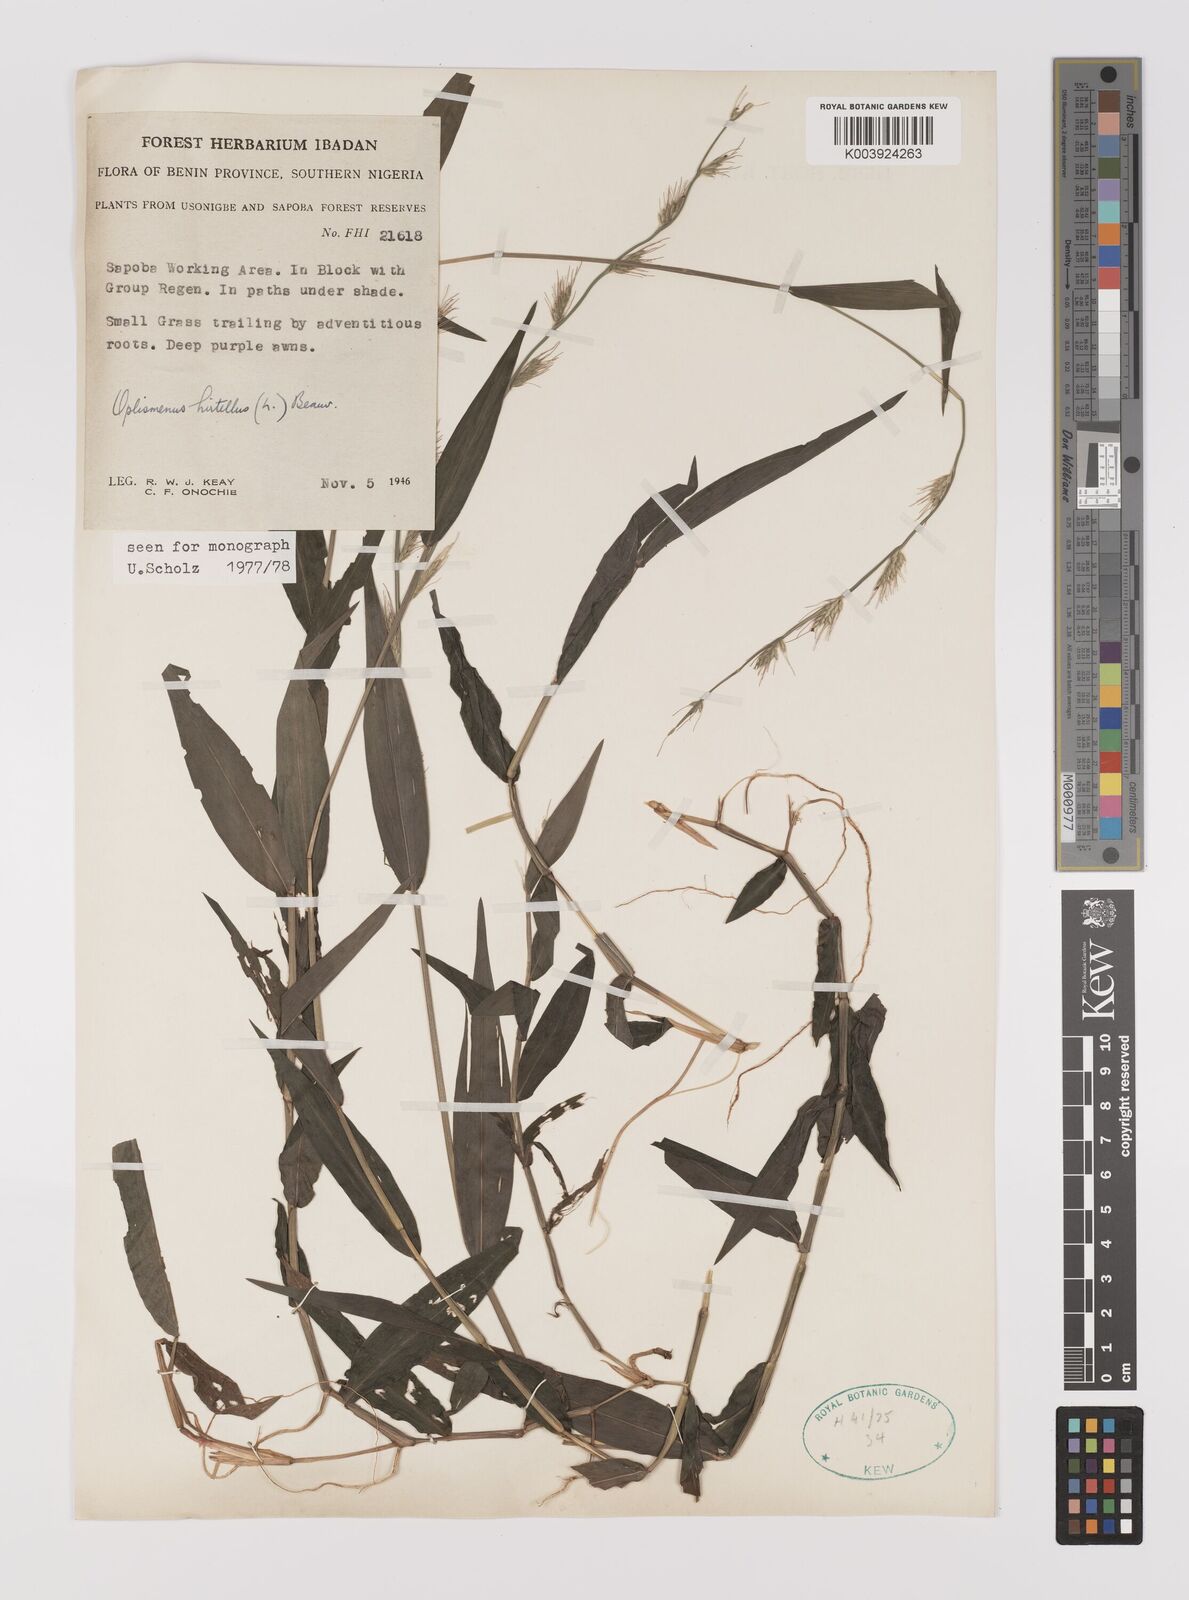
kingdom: Plantae
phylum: Tracheophyta
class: Liliopsida
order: Poales
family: Poaceae
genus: Oplismenus
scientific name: Oplismenus hirtellus
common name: Basketgrass
